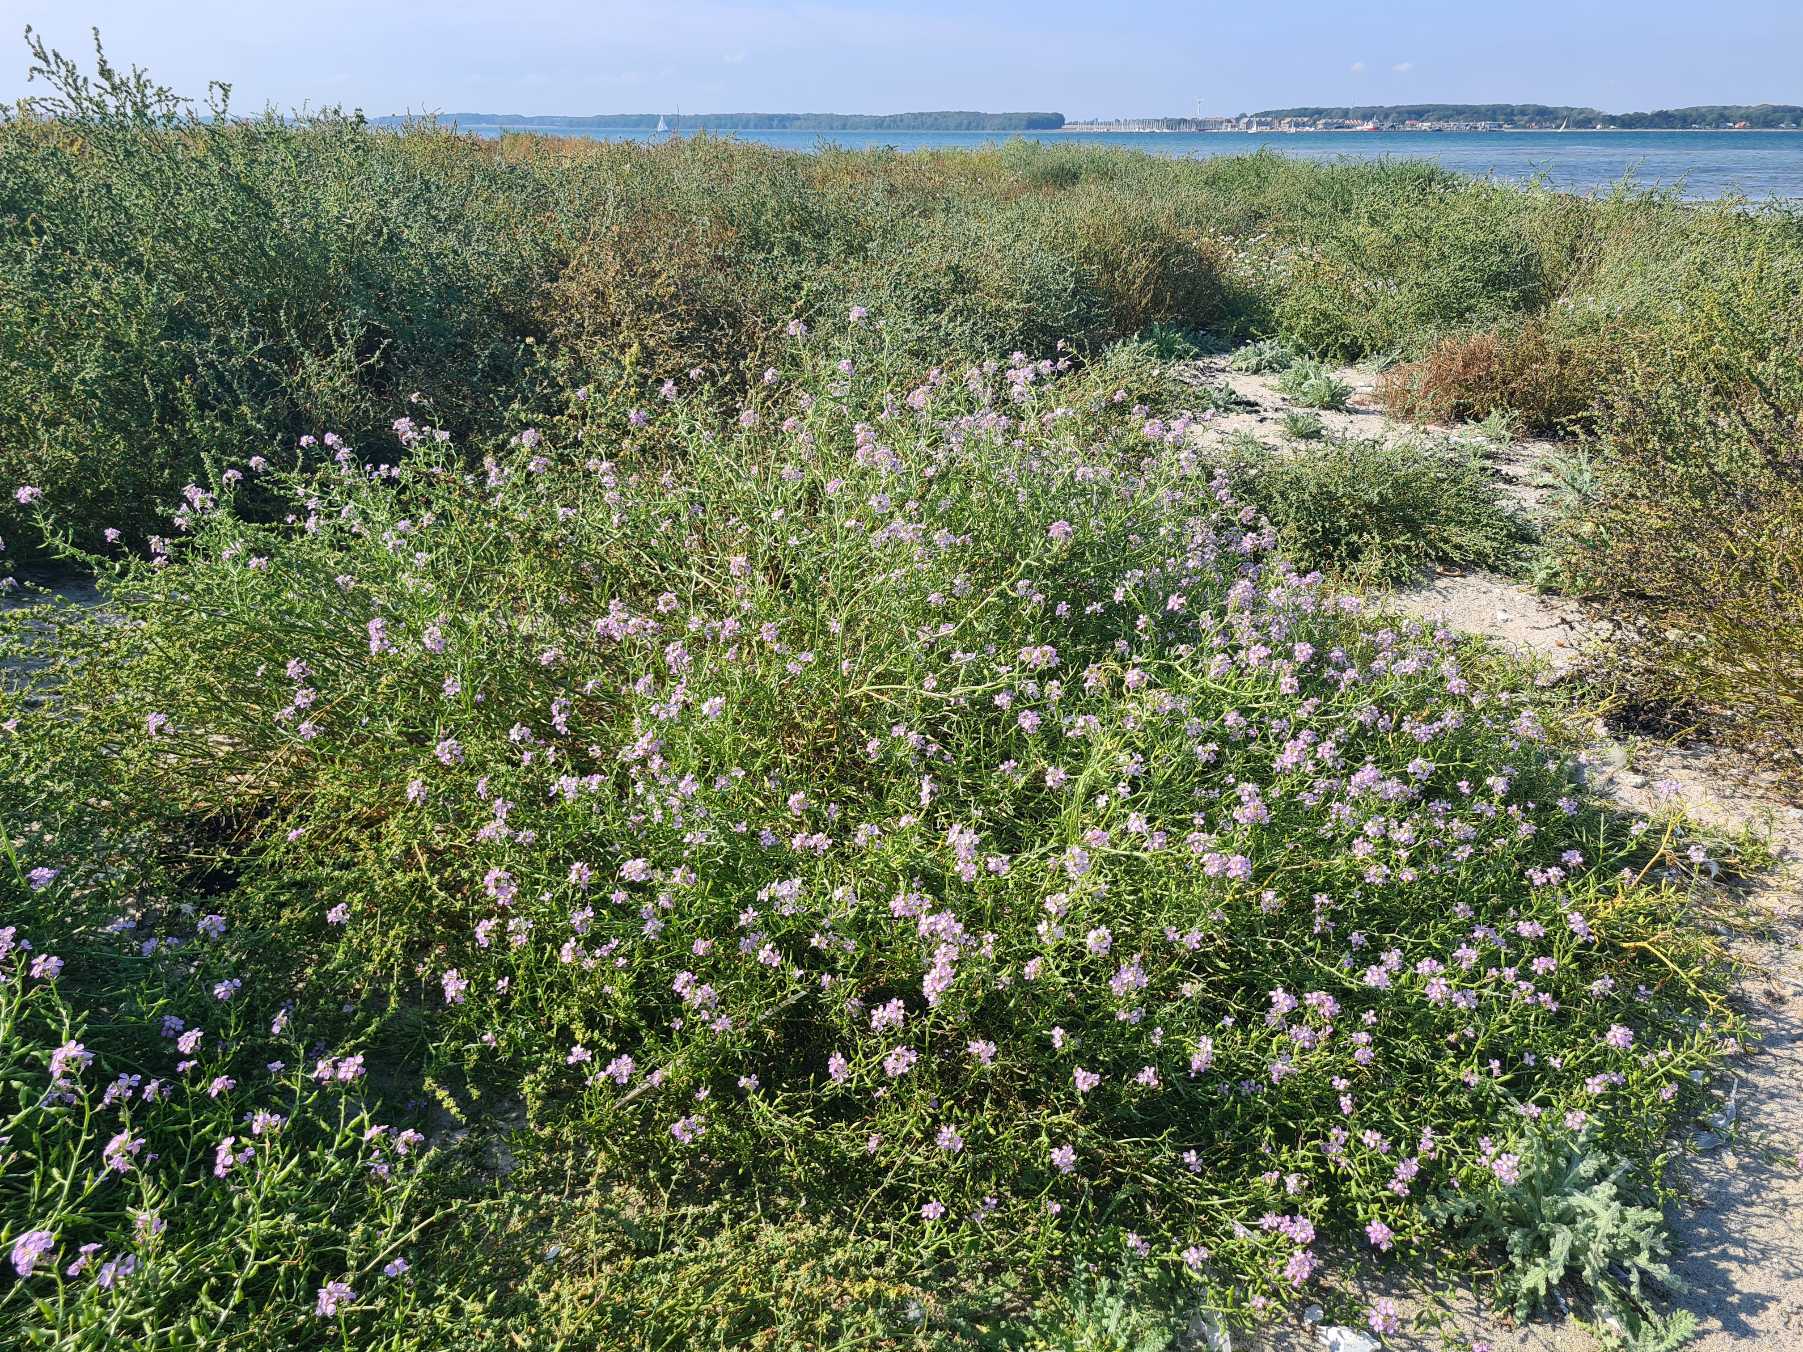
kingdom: Plantae
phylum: Tracheophyta
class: Magnoliopsida
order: Brassicales
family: Brassicaceae
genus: Cakile
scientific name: Cakile maritima
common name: Strandsennep
